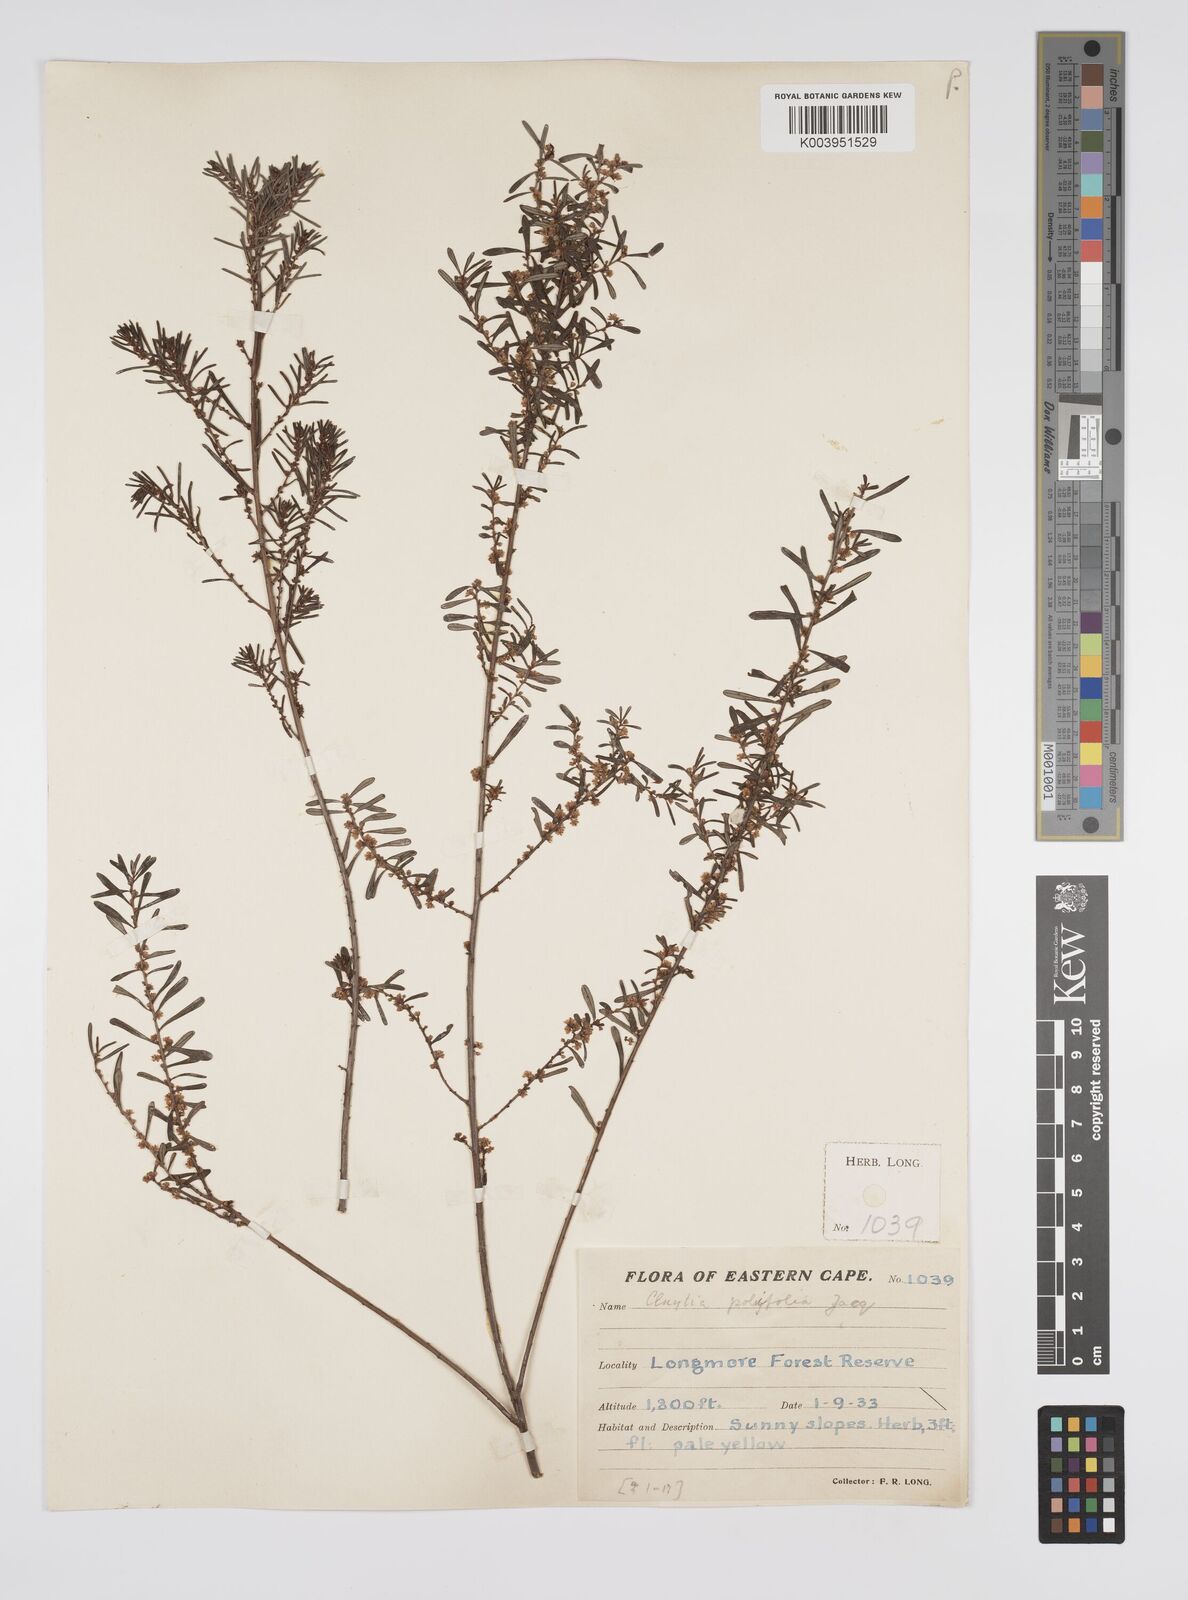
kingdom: Plantae
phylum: Tracheophyta
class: Magnoliopsida
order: Malpighiales
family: Peraceae
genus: Clutia
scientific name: Clutia
